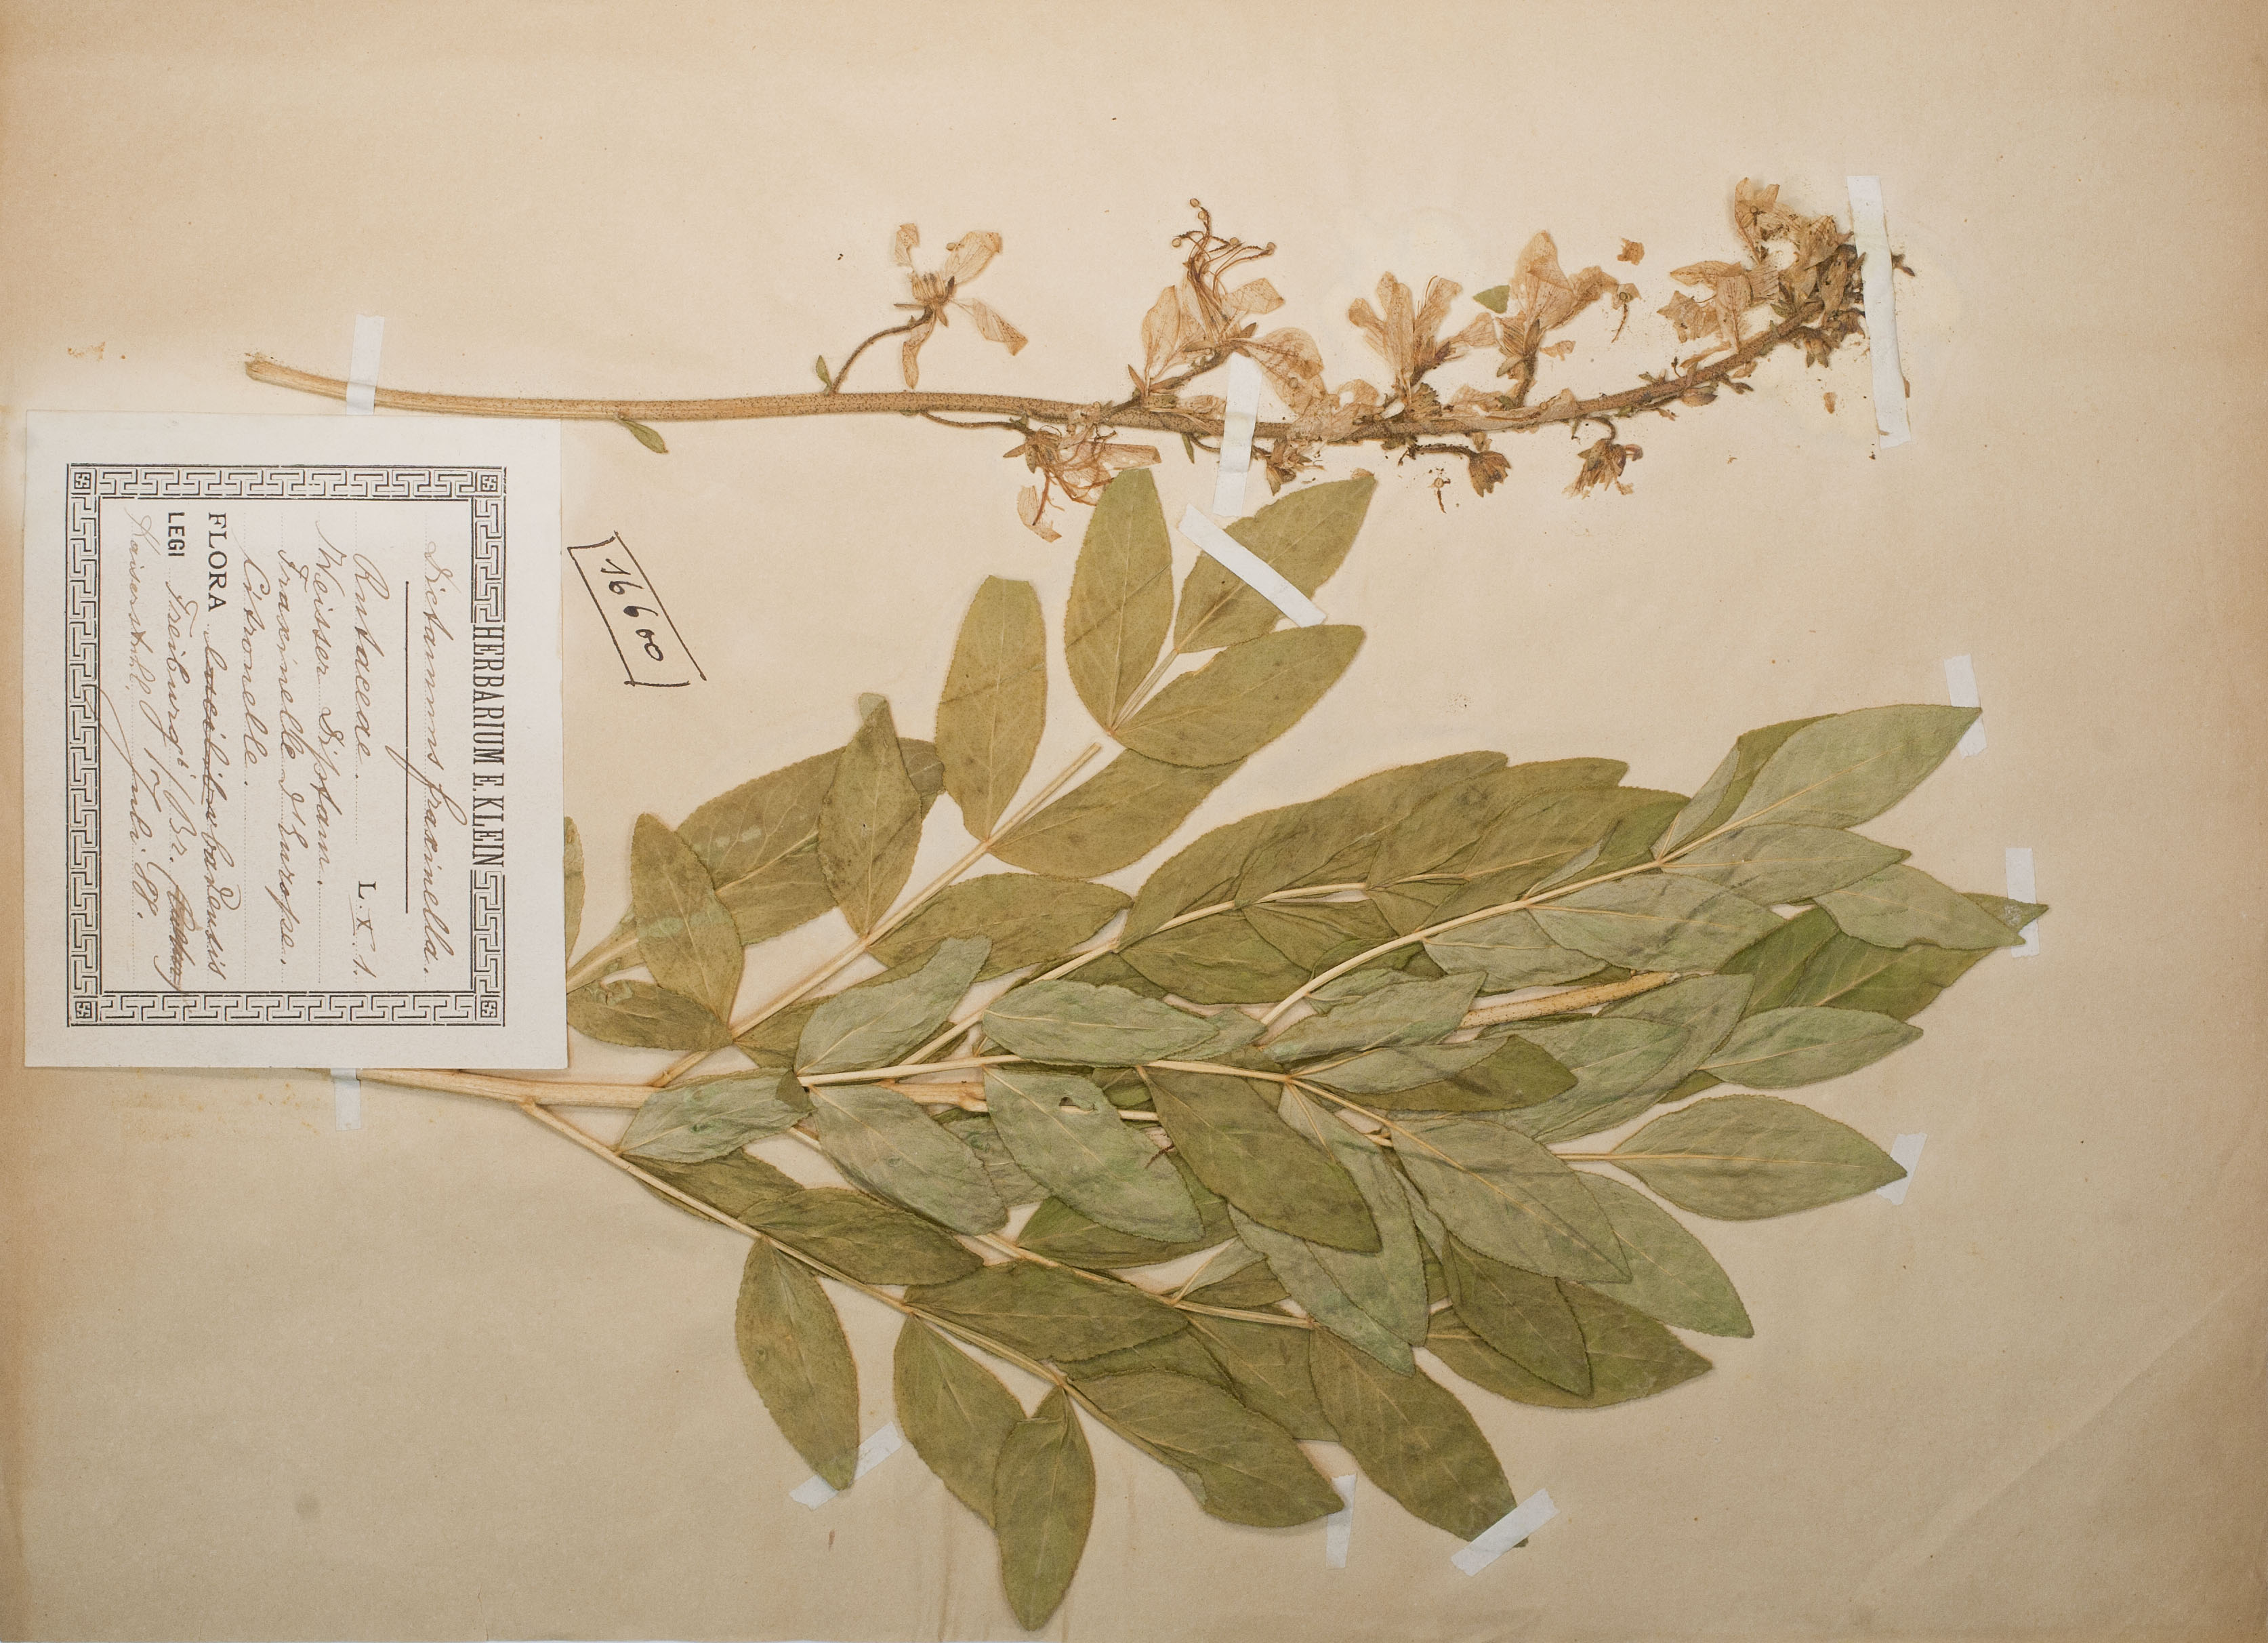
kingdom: Plantae
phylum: Tracheophyta
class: Magnoliopsida
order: Sapindales
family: Rutaceae
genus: Dictamnus
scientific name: Dictamnus albus
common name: Gasplant
